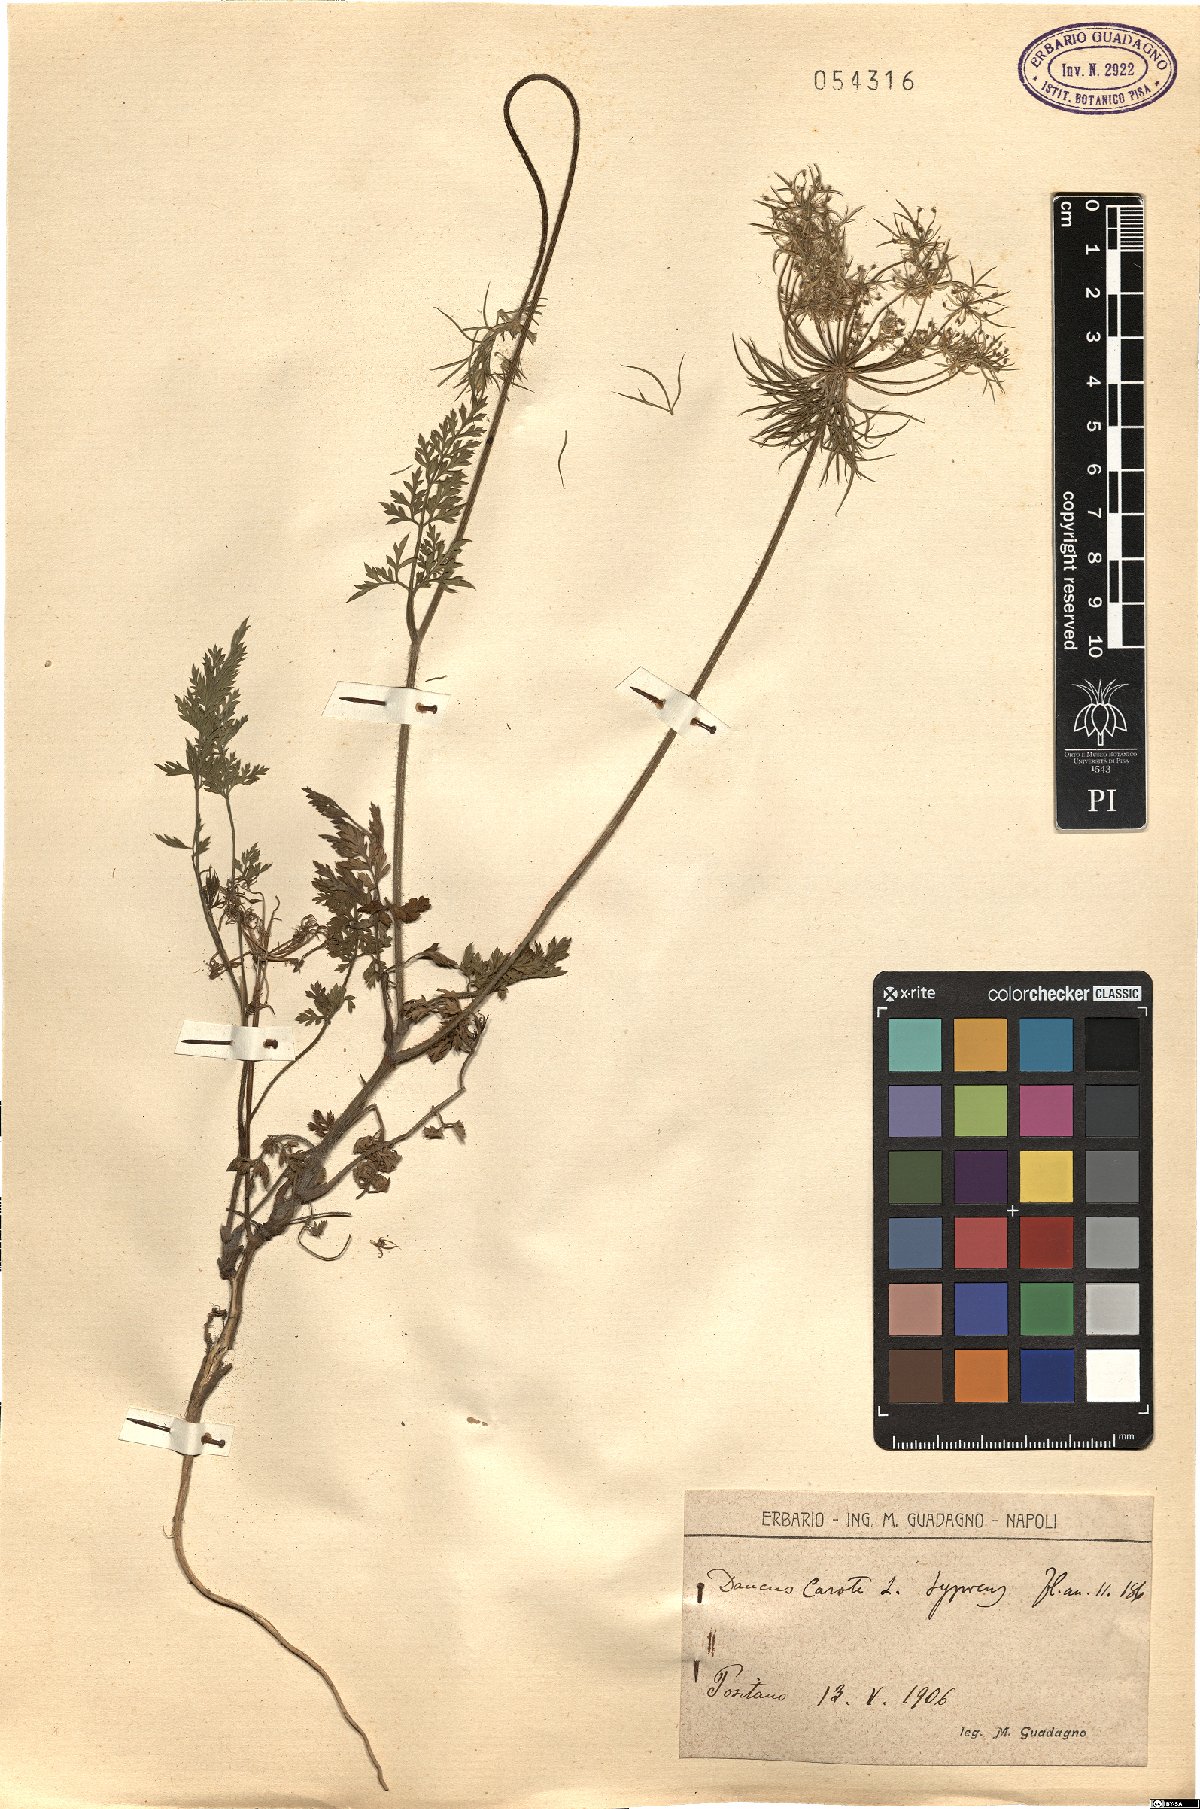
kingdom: Plantae
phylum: Tracheophyta
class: Magnoliopsida
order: Apiales
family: Apiaceae
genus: Daucus
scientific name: Daucus carota
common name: Wild carrot
